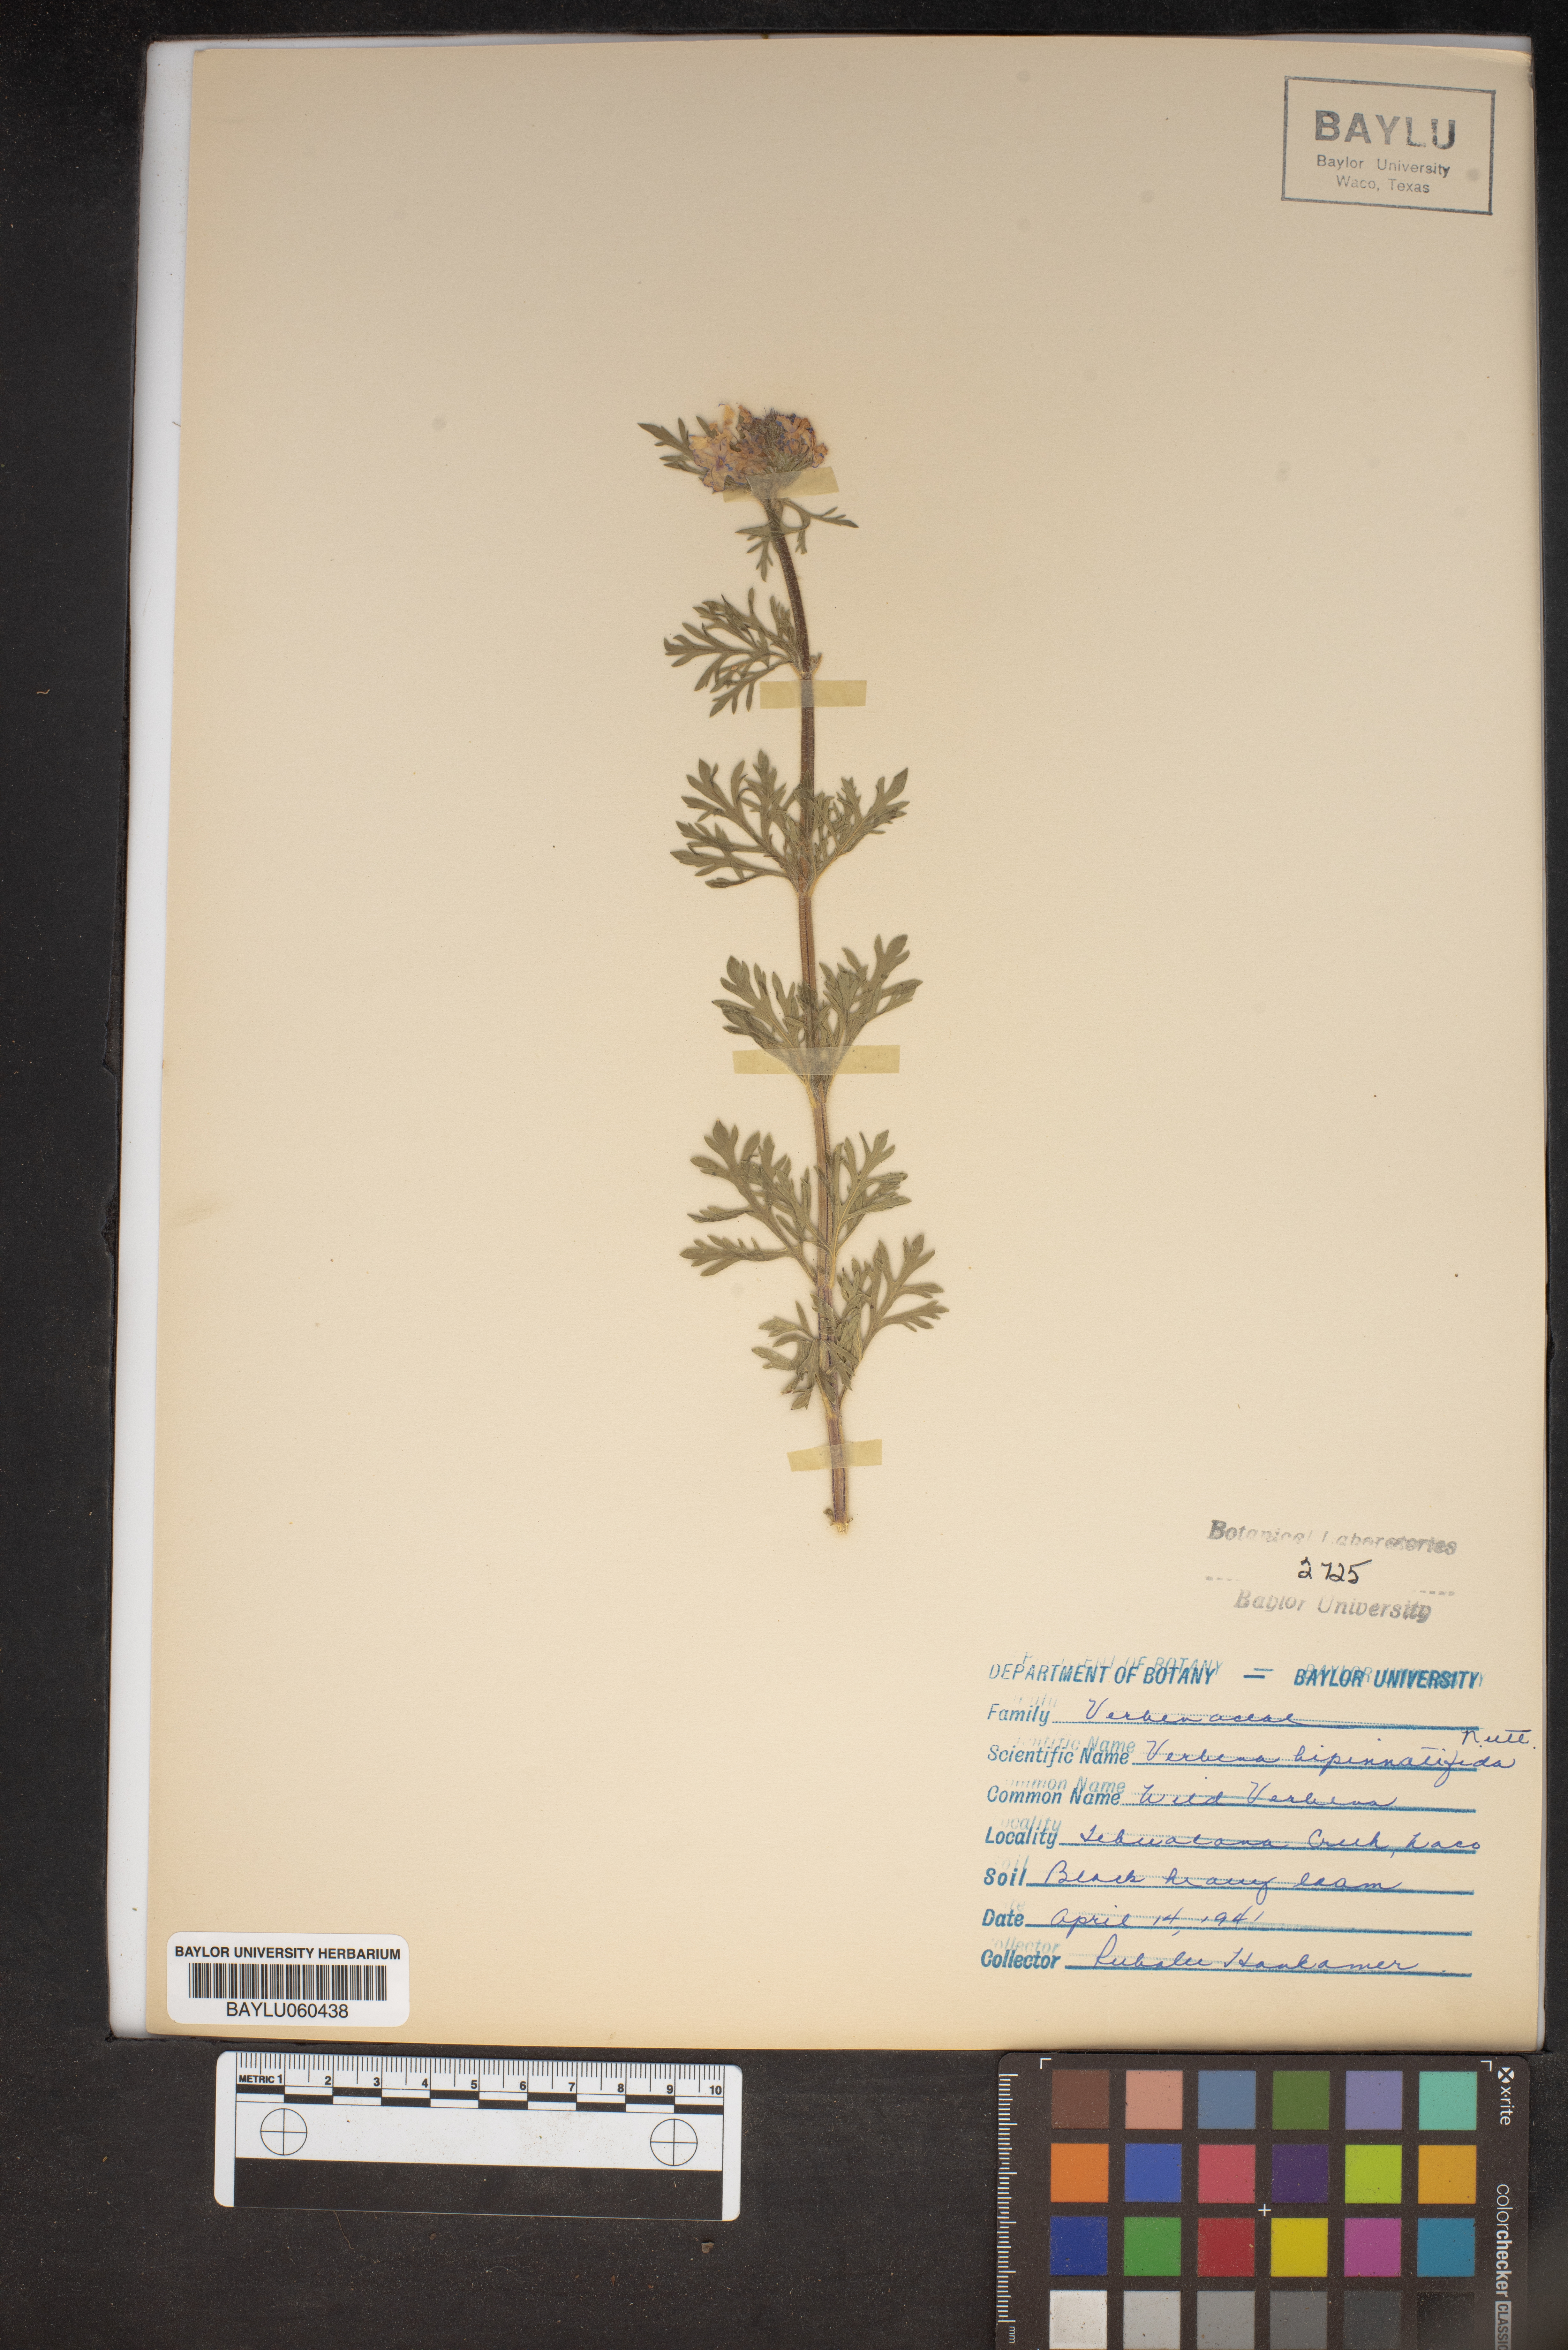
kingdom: Plantae
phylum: Tracheophyta
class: Magnoliopsida
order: Lamiales
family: Verbenaceae
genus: Verbena
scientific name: Verbena bipinnatifida
